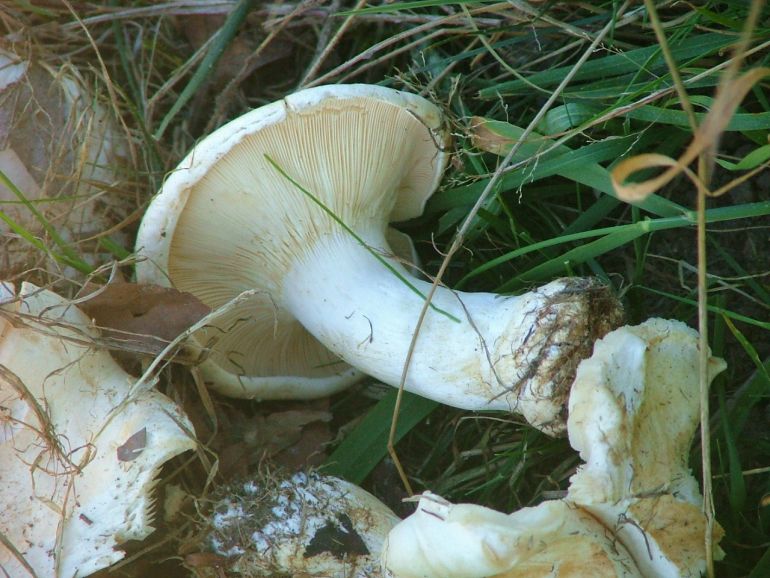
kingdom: Fungi
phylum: Basidiomycota
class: Agaricomycetes
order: Agaricales
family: Tricholomataceae
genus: Aspropaxillus
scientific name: Aspropaxillus giganteus
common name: kæmpe-tragtridderhat
